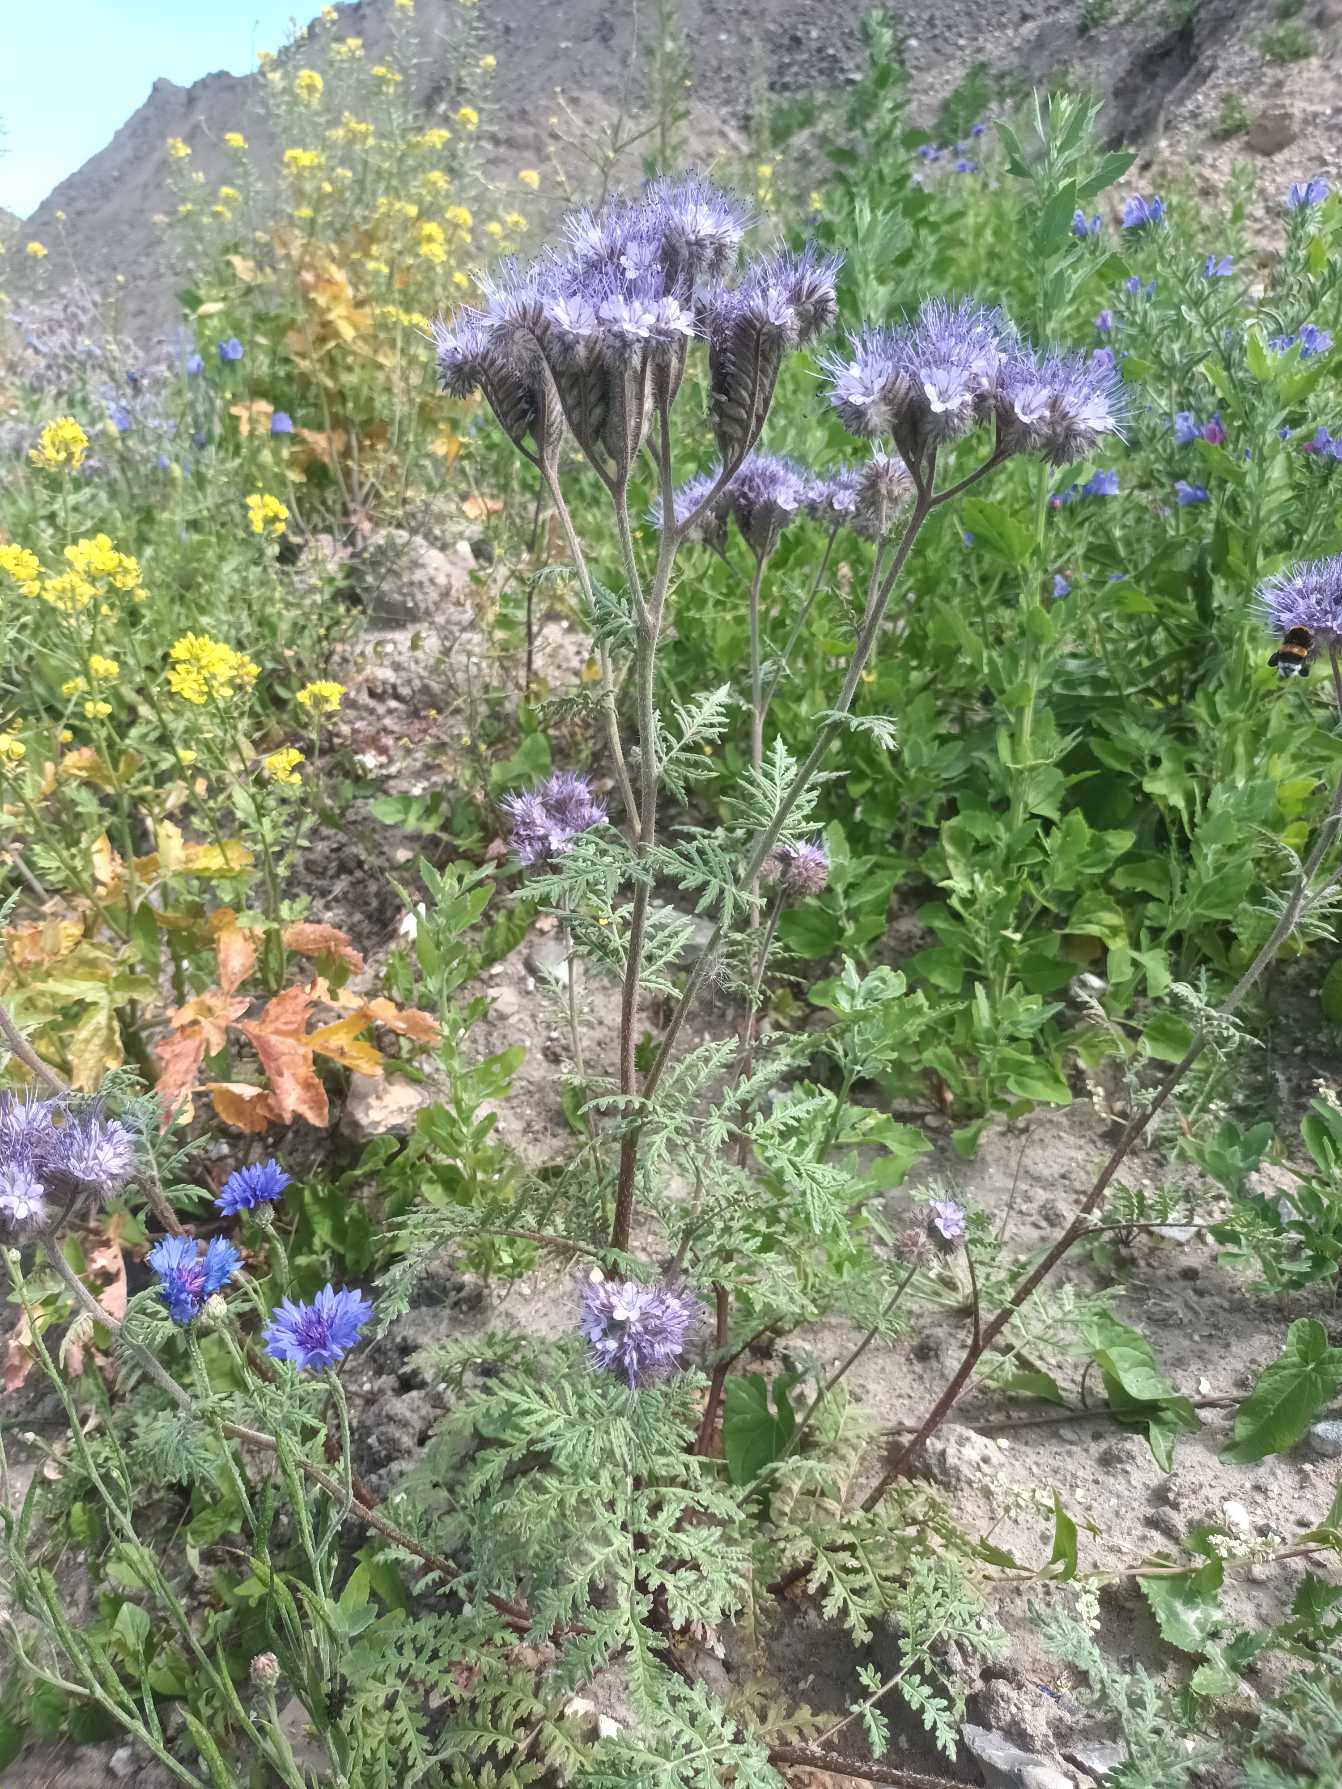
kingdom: Plantae
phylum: Tracheophyta
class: Magnoliopsida
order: Boraginales
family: Hydrophyllaceae
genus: Phacelia
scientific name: Phacelia tanacetifolia
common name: Honningurt
